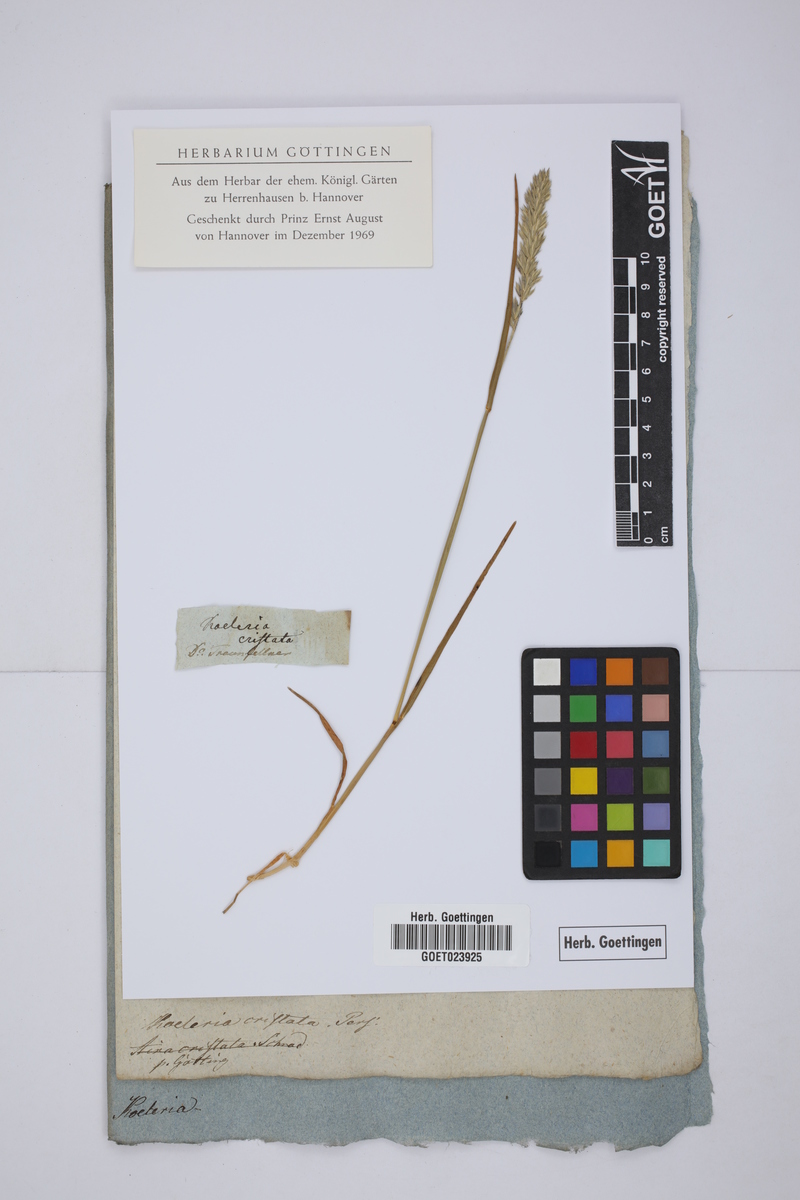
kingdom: Plantae
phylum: Tracheophyta
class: Liliopsida
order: Poales
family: Poaceae
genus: Koeleria
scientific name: Koeleria pyramidata
